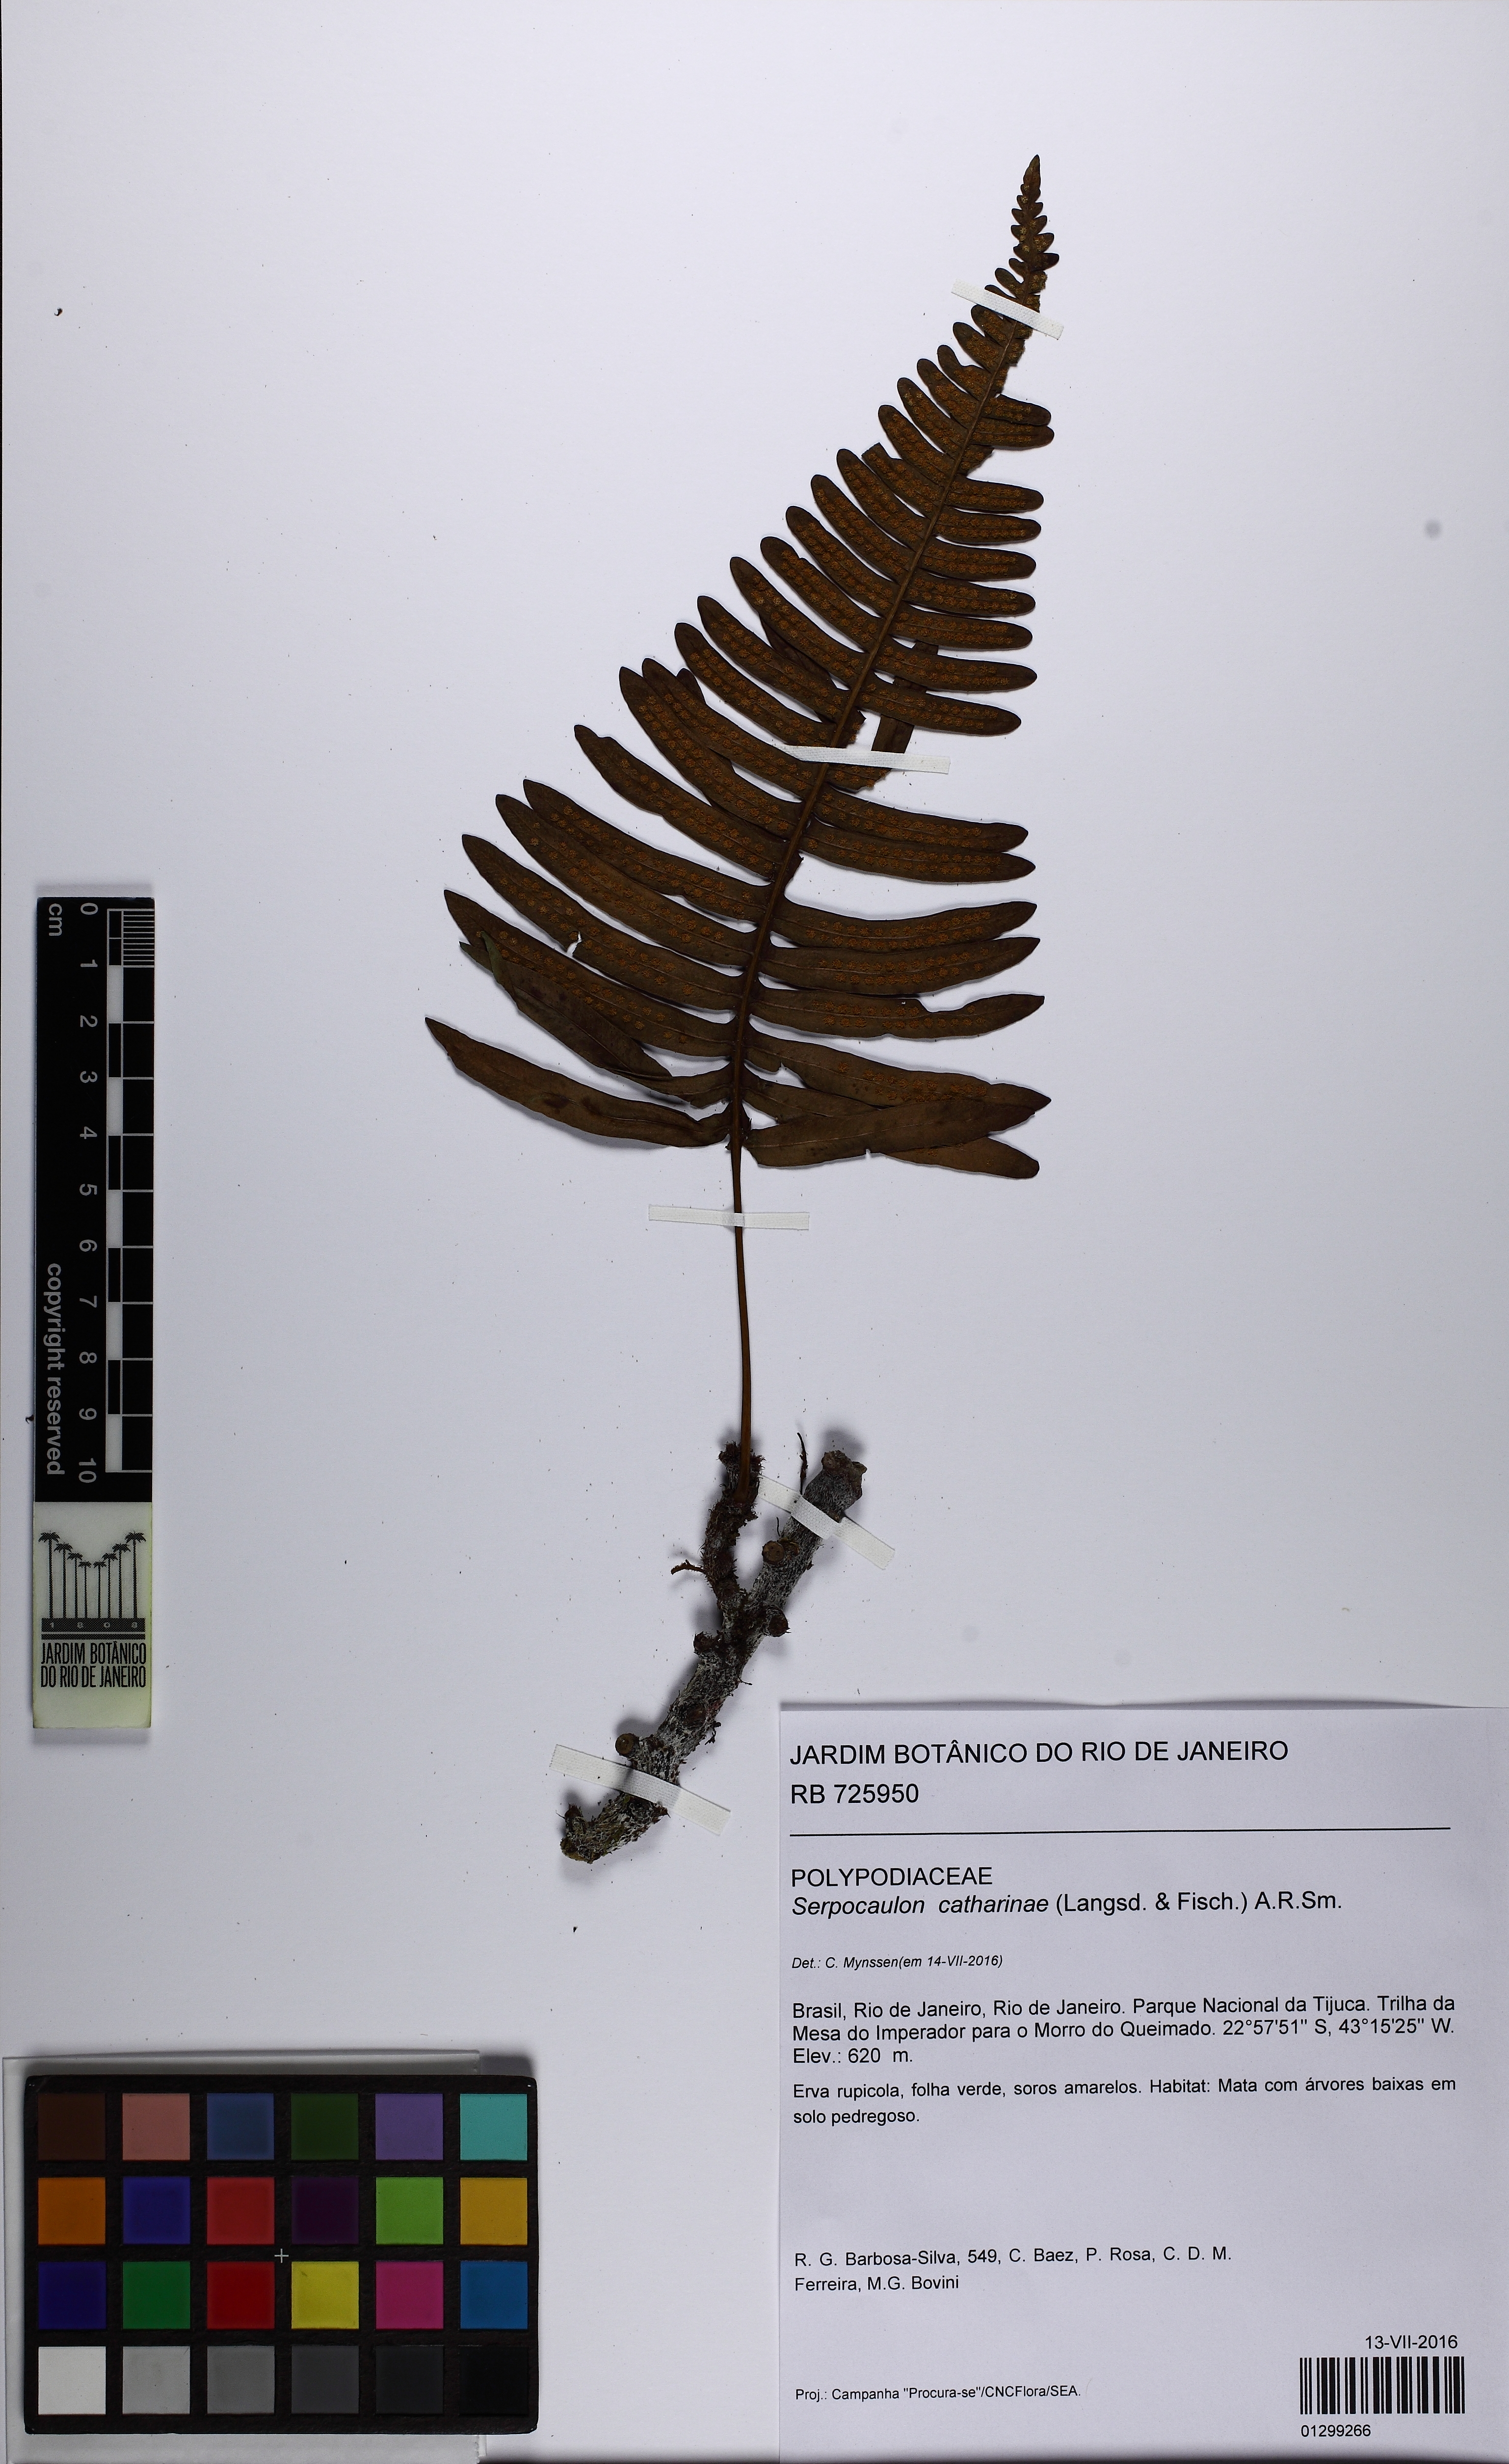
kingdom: Plantae
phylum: Tracheophyta
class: Polypodiopsida
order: Polypodiales
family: Polypodiaceae
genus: Serpocaulon
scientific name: Serpocaulon catharinae
